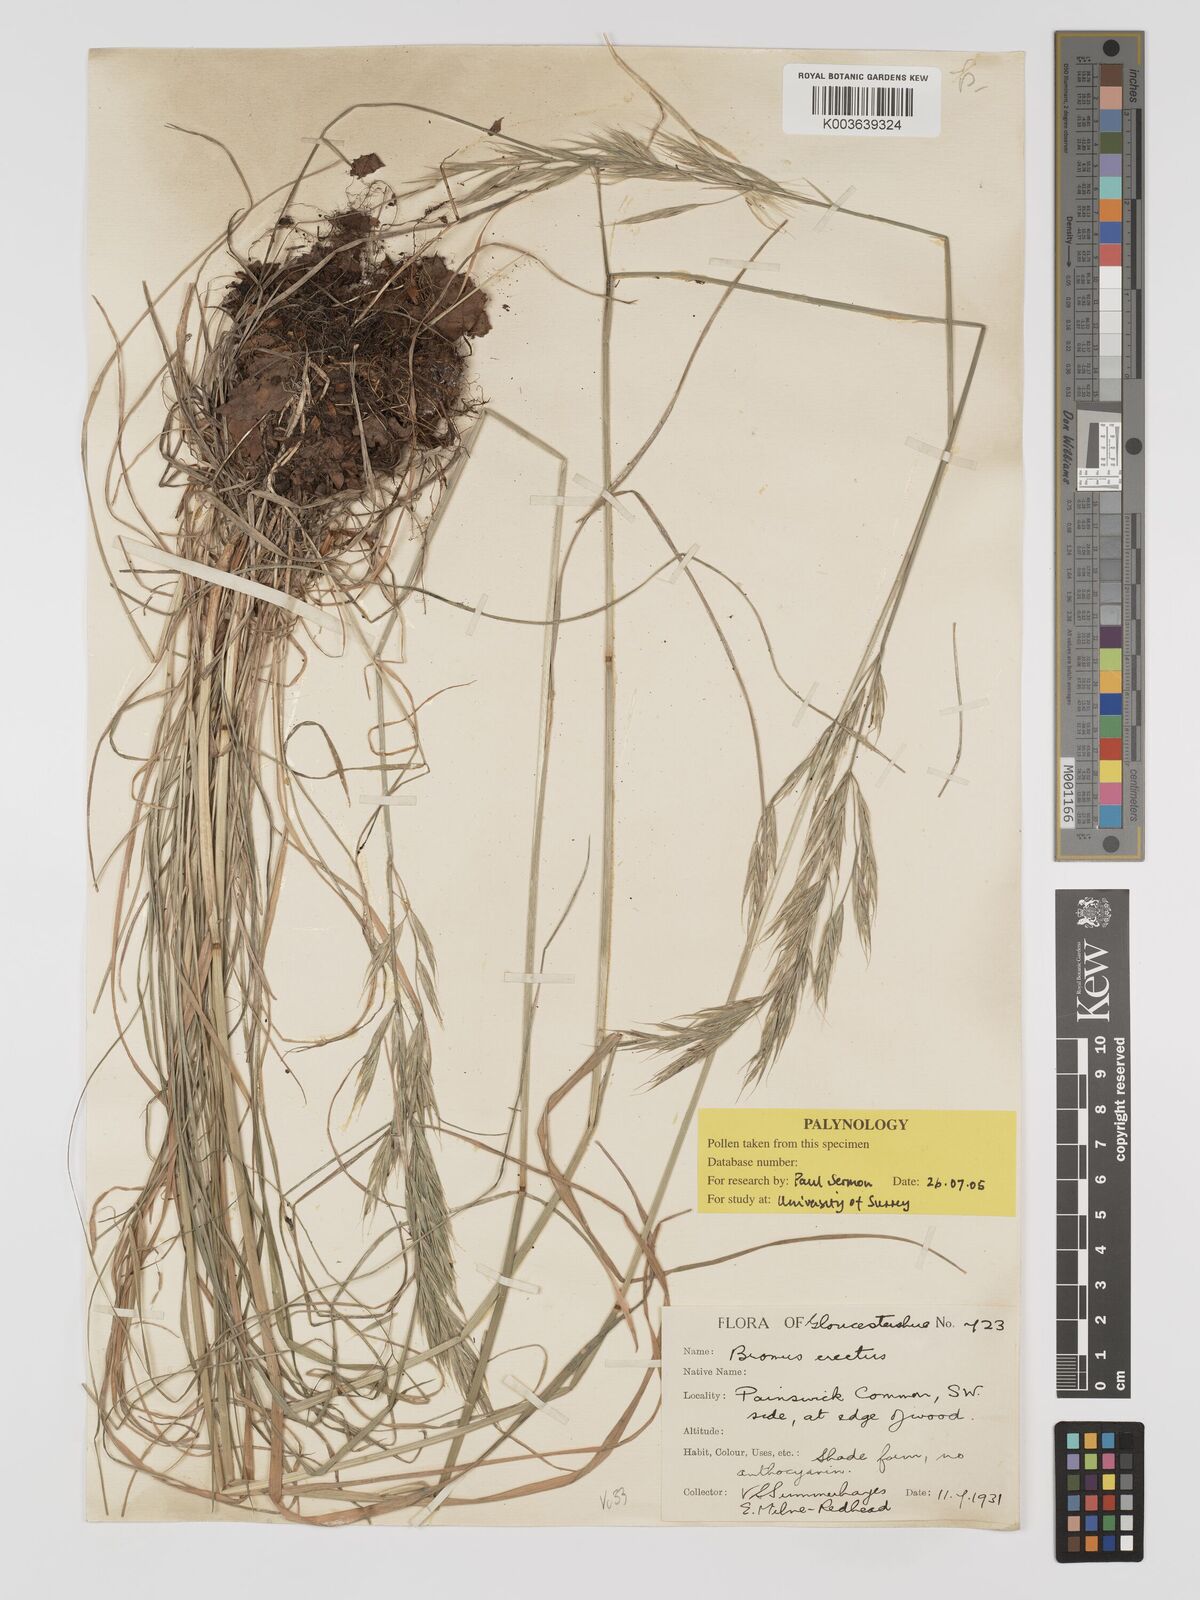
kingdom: Plantae
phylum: Tracheophyta
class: Liliopsida
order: Poales
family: Poaceae
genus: Bromus
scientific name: Bromus erectus
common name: Erect brome
